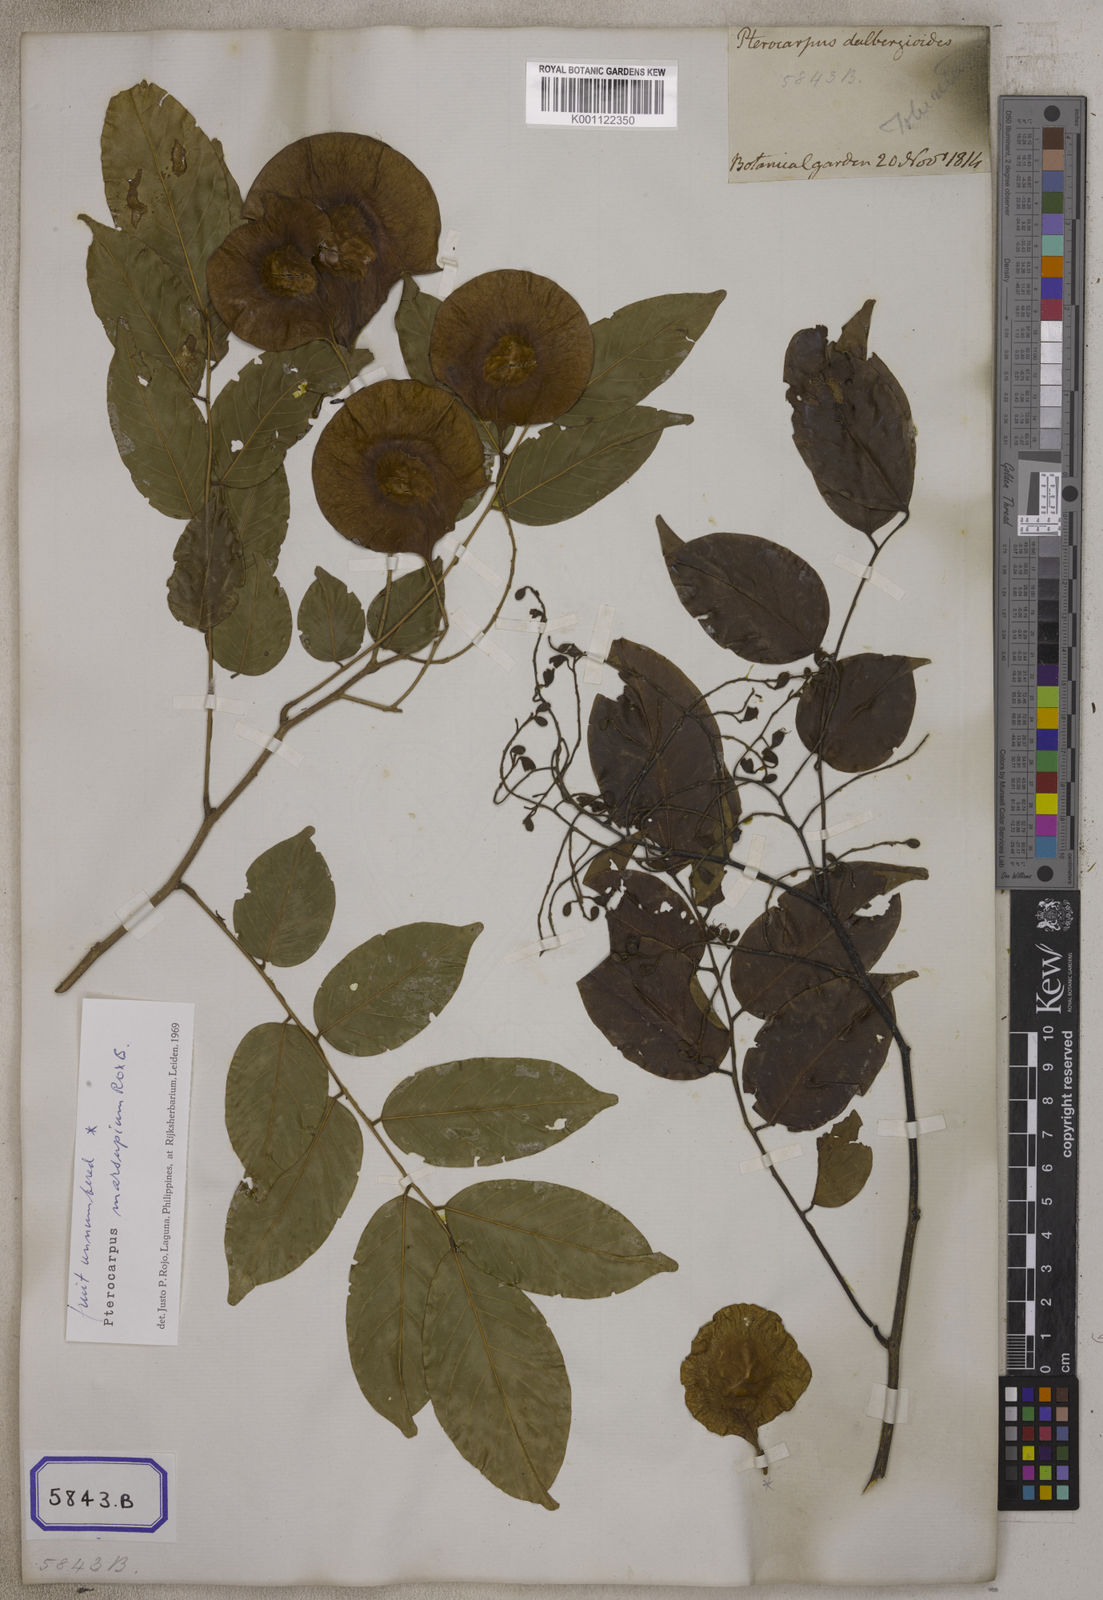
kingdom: Plantae
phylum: Tracheophyta
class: Magnoliopsida
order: Fabales
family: Fabaceae
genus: Pterocarpus
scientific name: Pterocarpus
